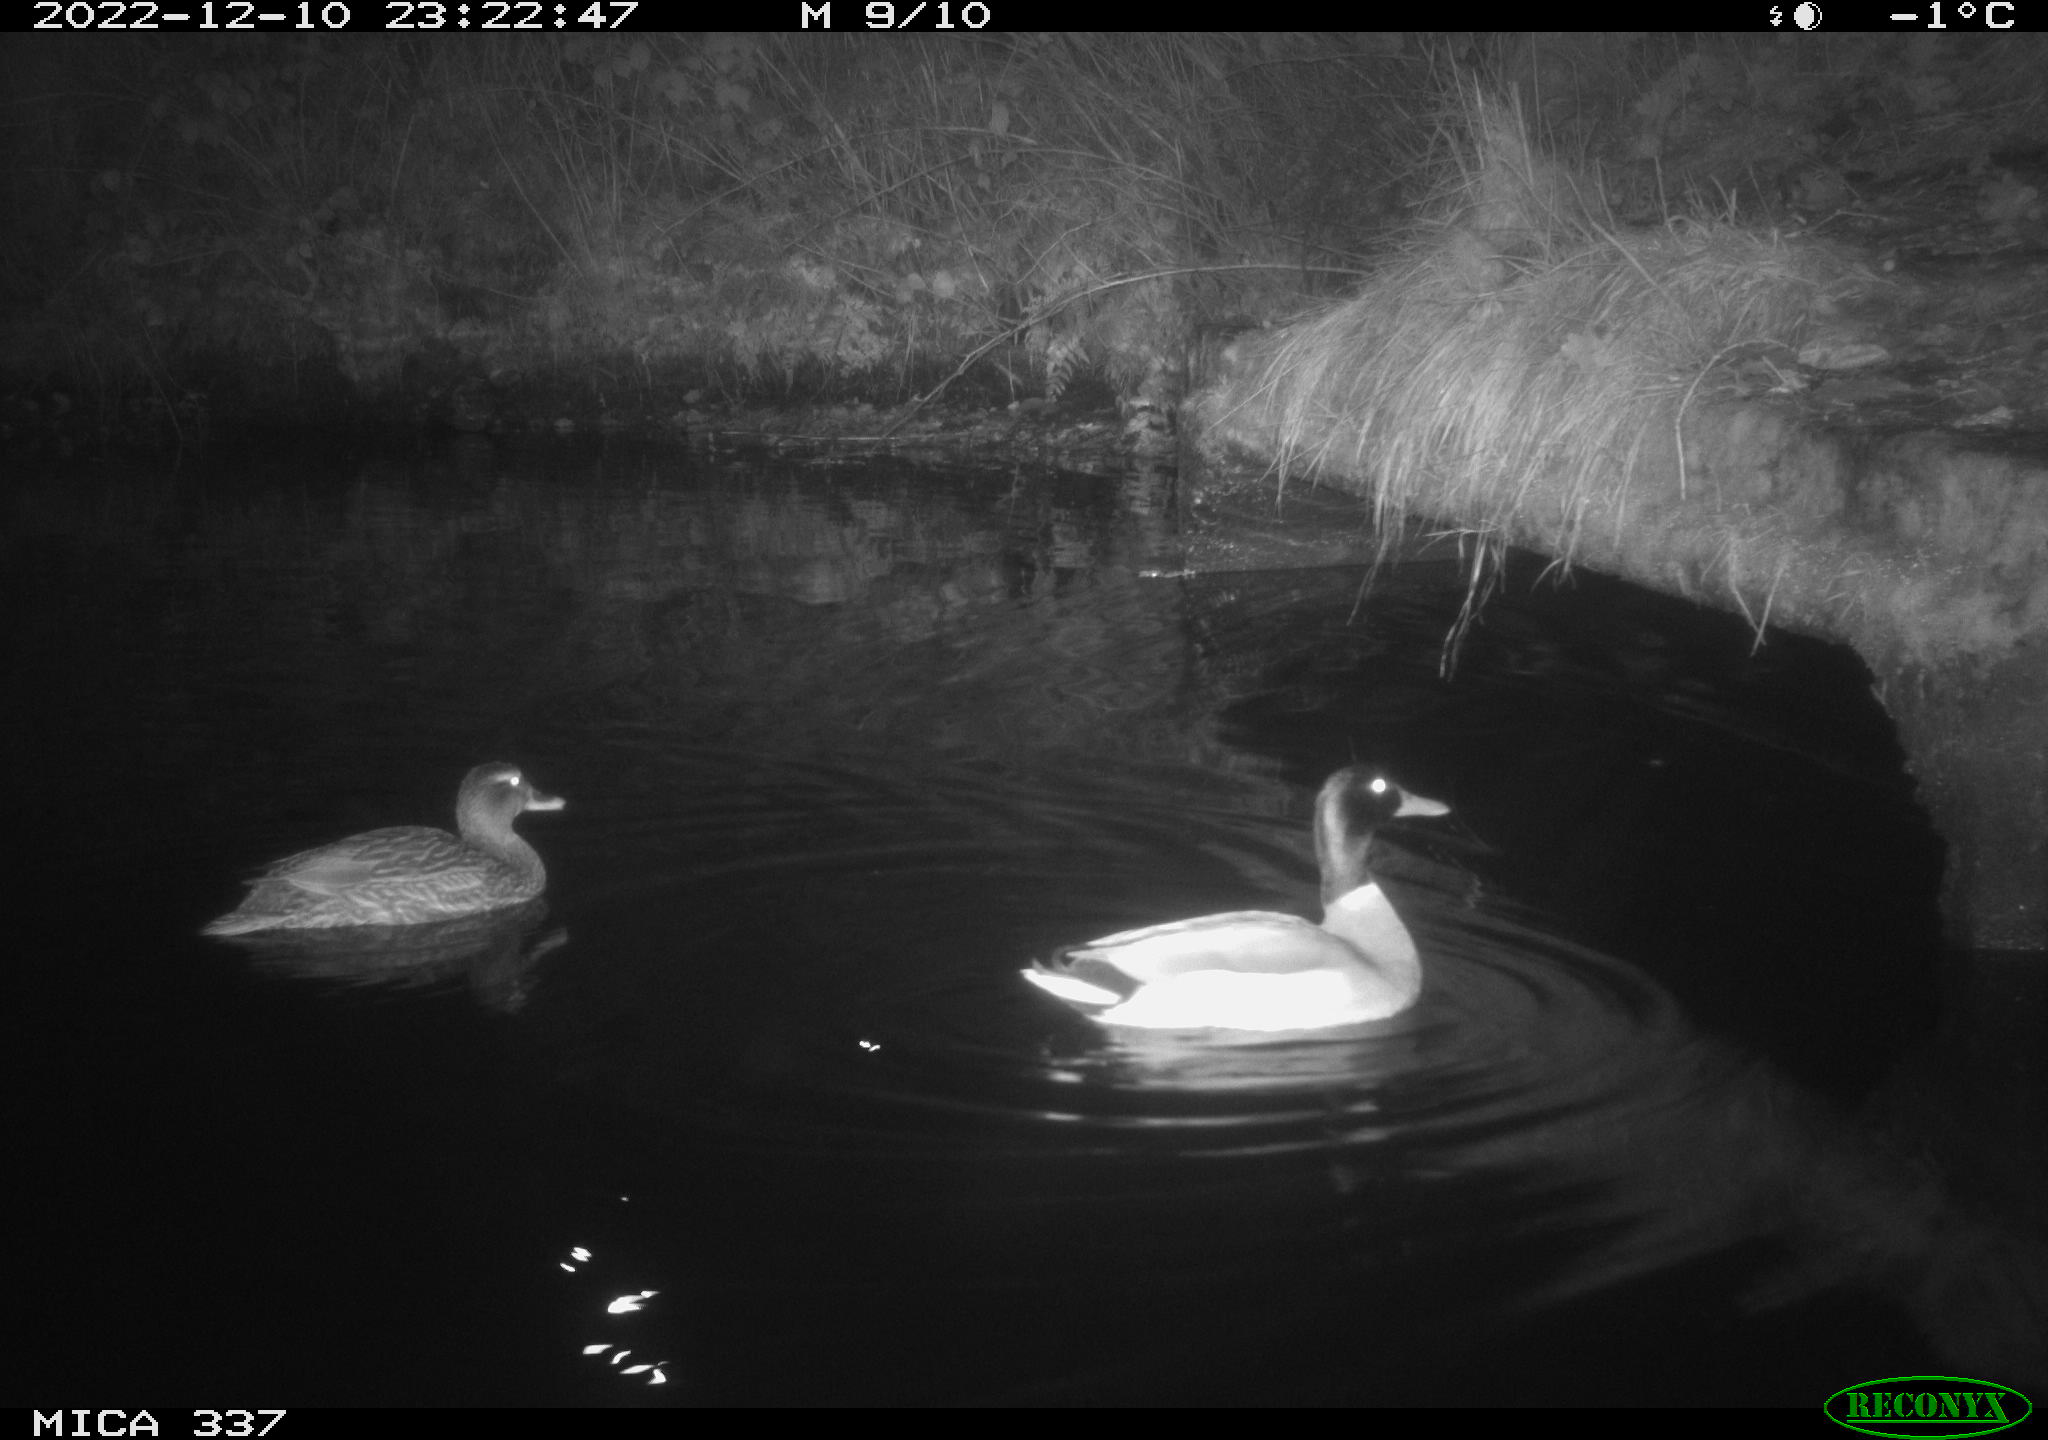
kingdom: Animalia
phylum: Chordata
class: Aves
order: Anseriformes
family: Anatidae
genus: Anas
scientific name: Anas
